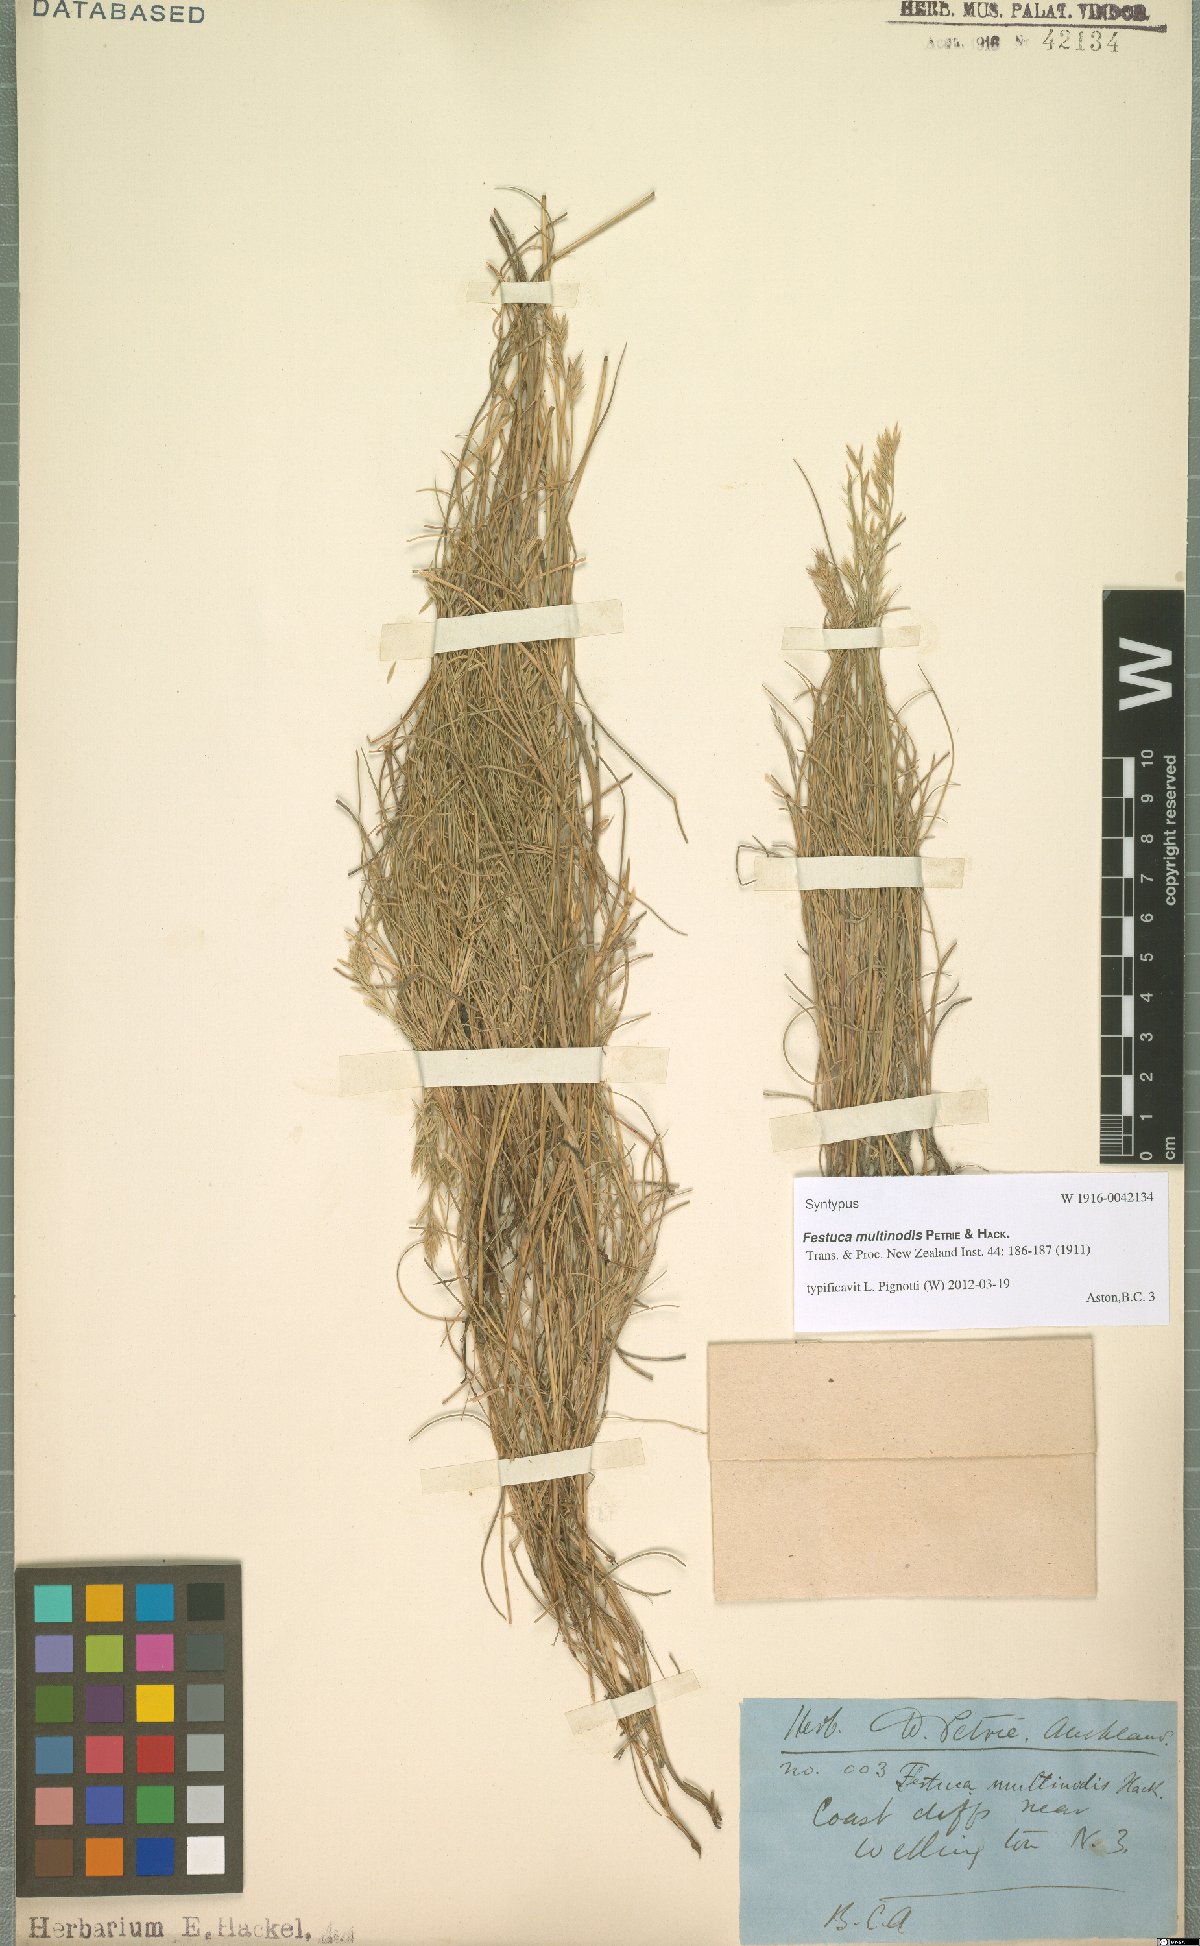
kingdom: Plantae
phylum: Tracheophyta
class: Liliopsida
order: Poales
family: Poaceae
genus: Festuca
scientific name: Festuca multinodis
